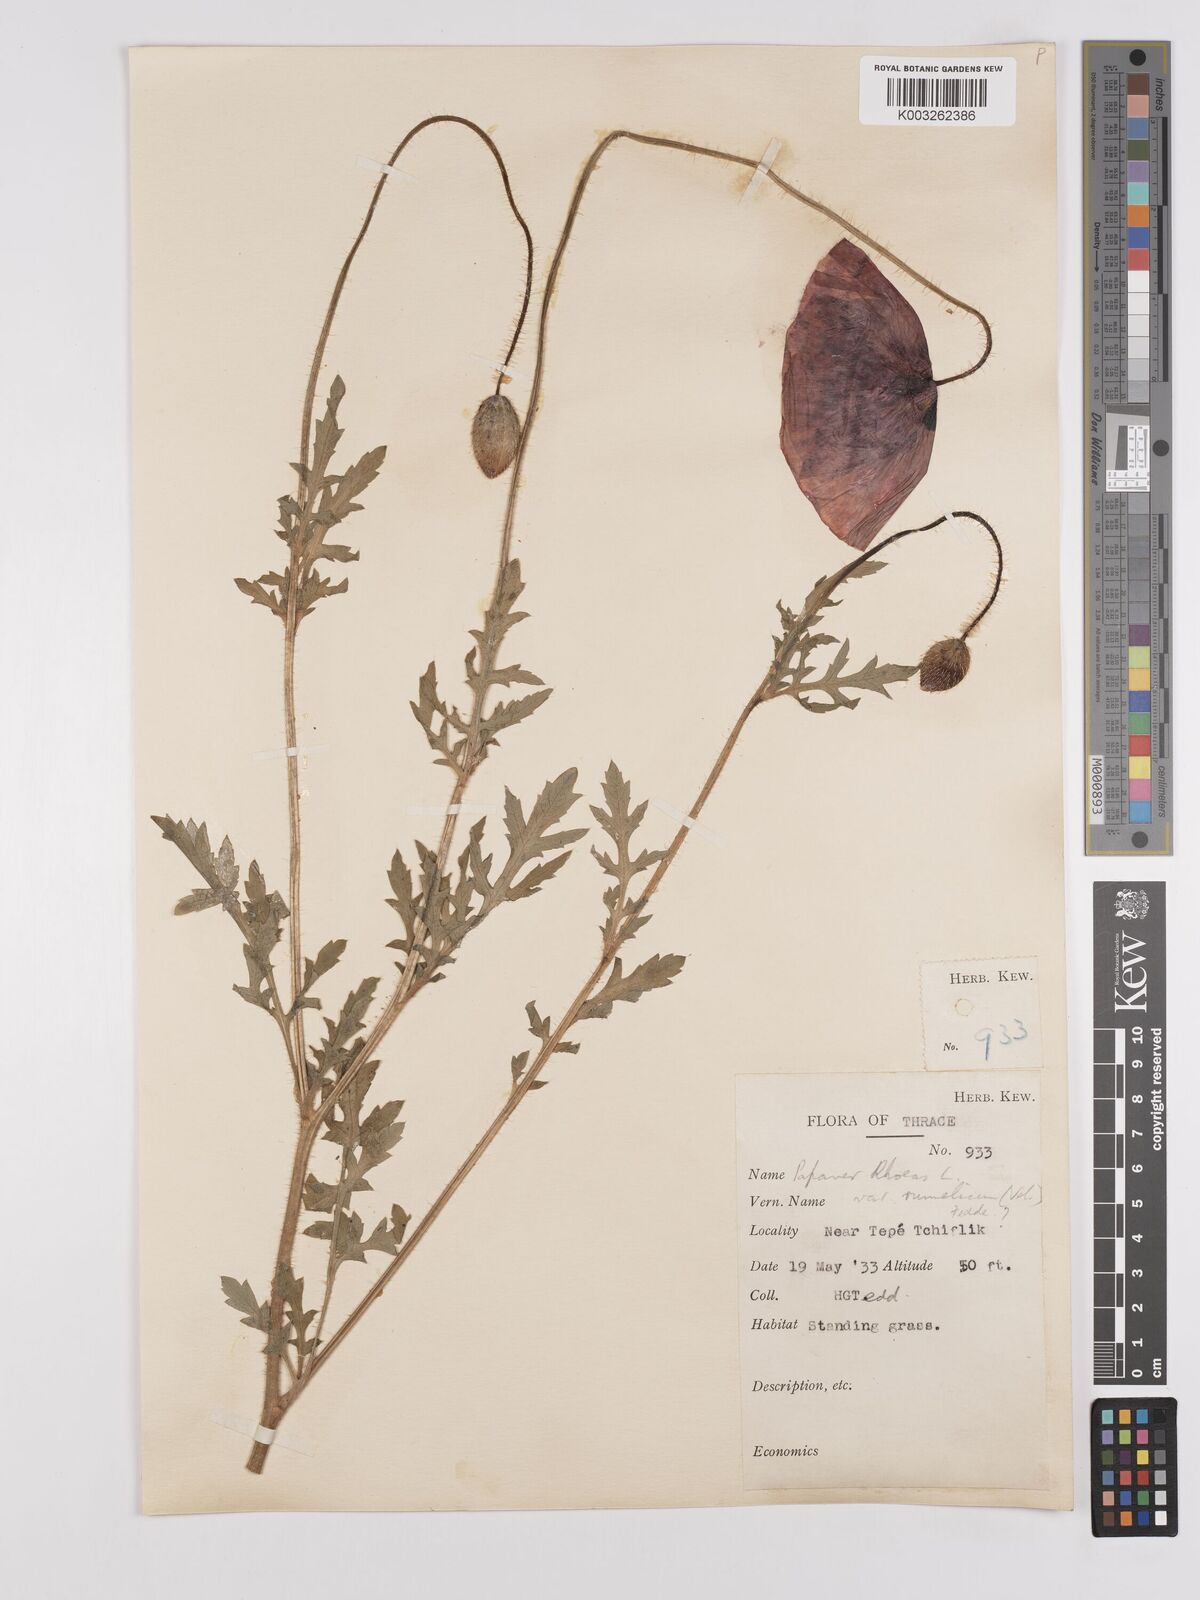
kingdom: Plantae
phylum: Tracheophyta
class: Magnoliopsida
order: Ranunculales
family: Papaveraceae
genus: Papaver
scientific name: Papaver rhoeas
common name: Corn poppy
